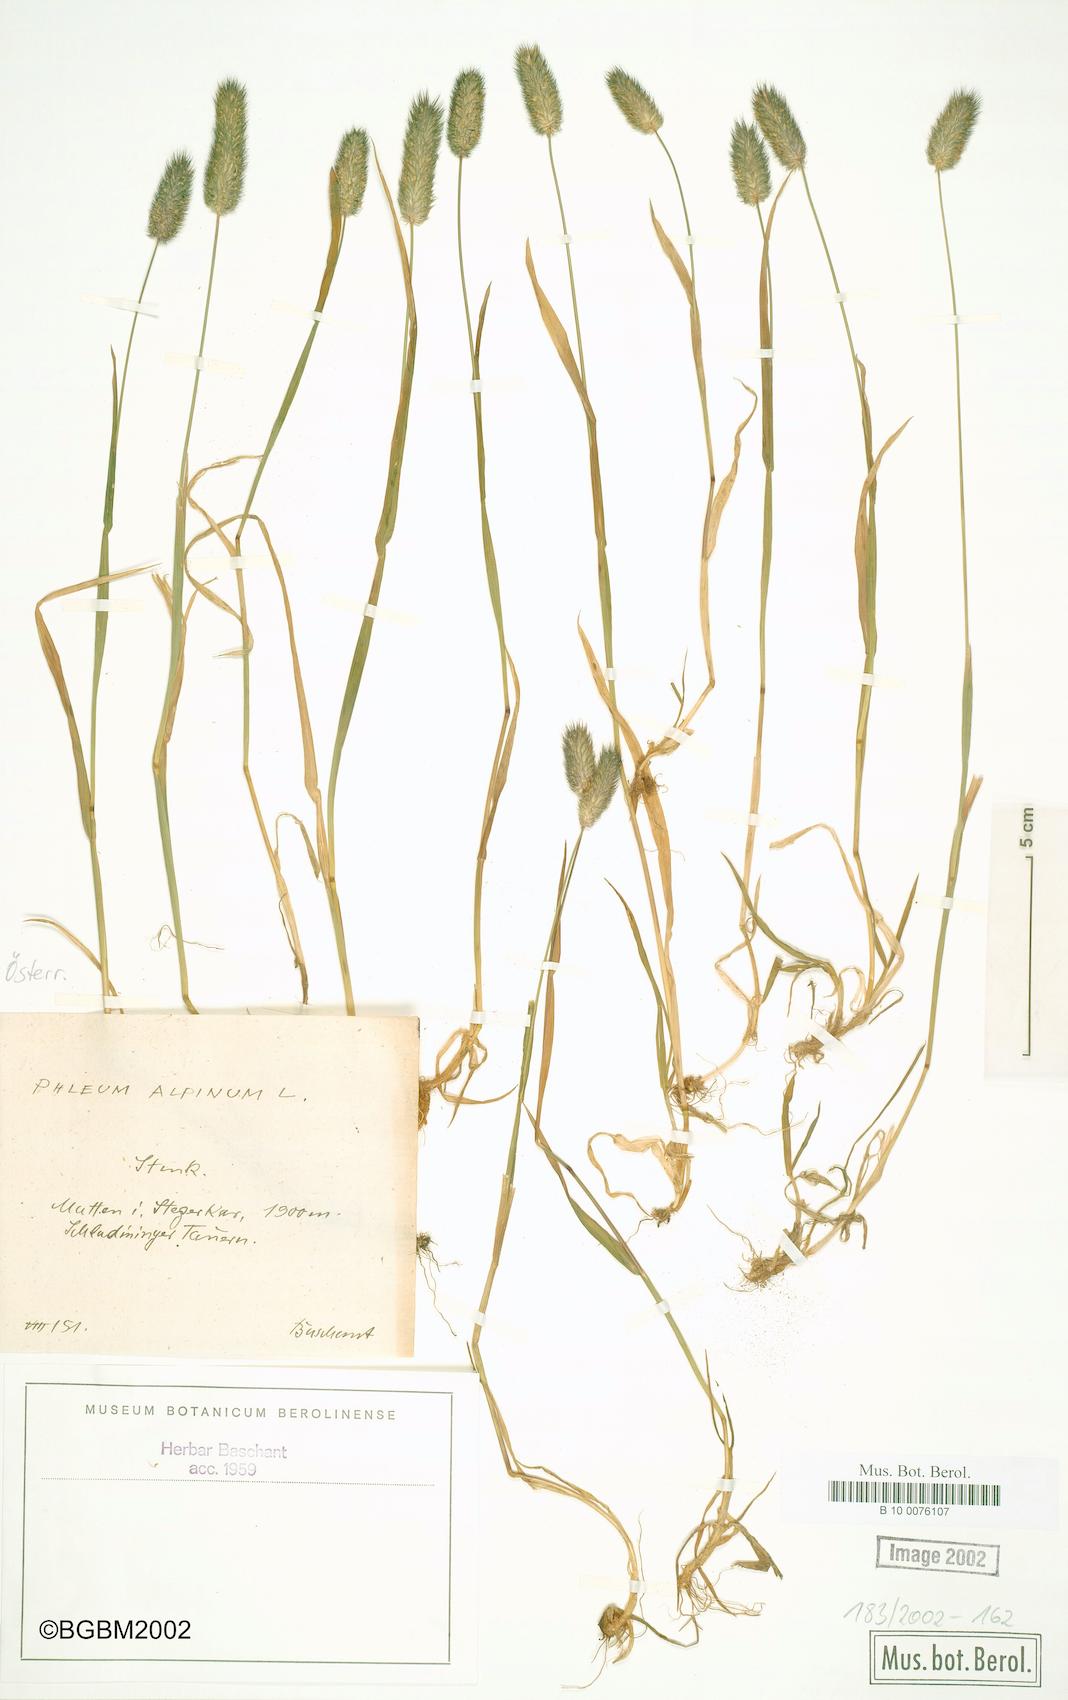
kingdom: Plantae
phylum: Tracheophyta
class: Liliopsida
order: Poales
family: Poaceae
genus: Phleum
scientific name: Phleum alpinum
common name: Alpine cat's-tail
